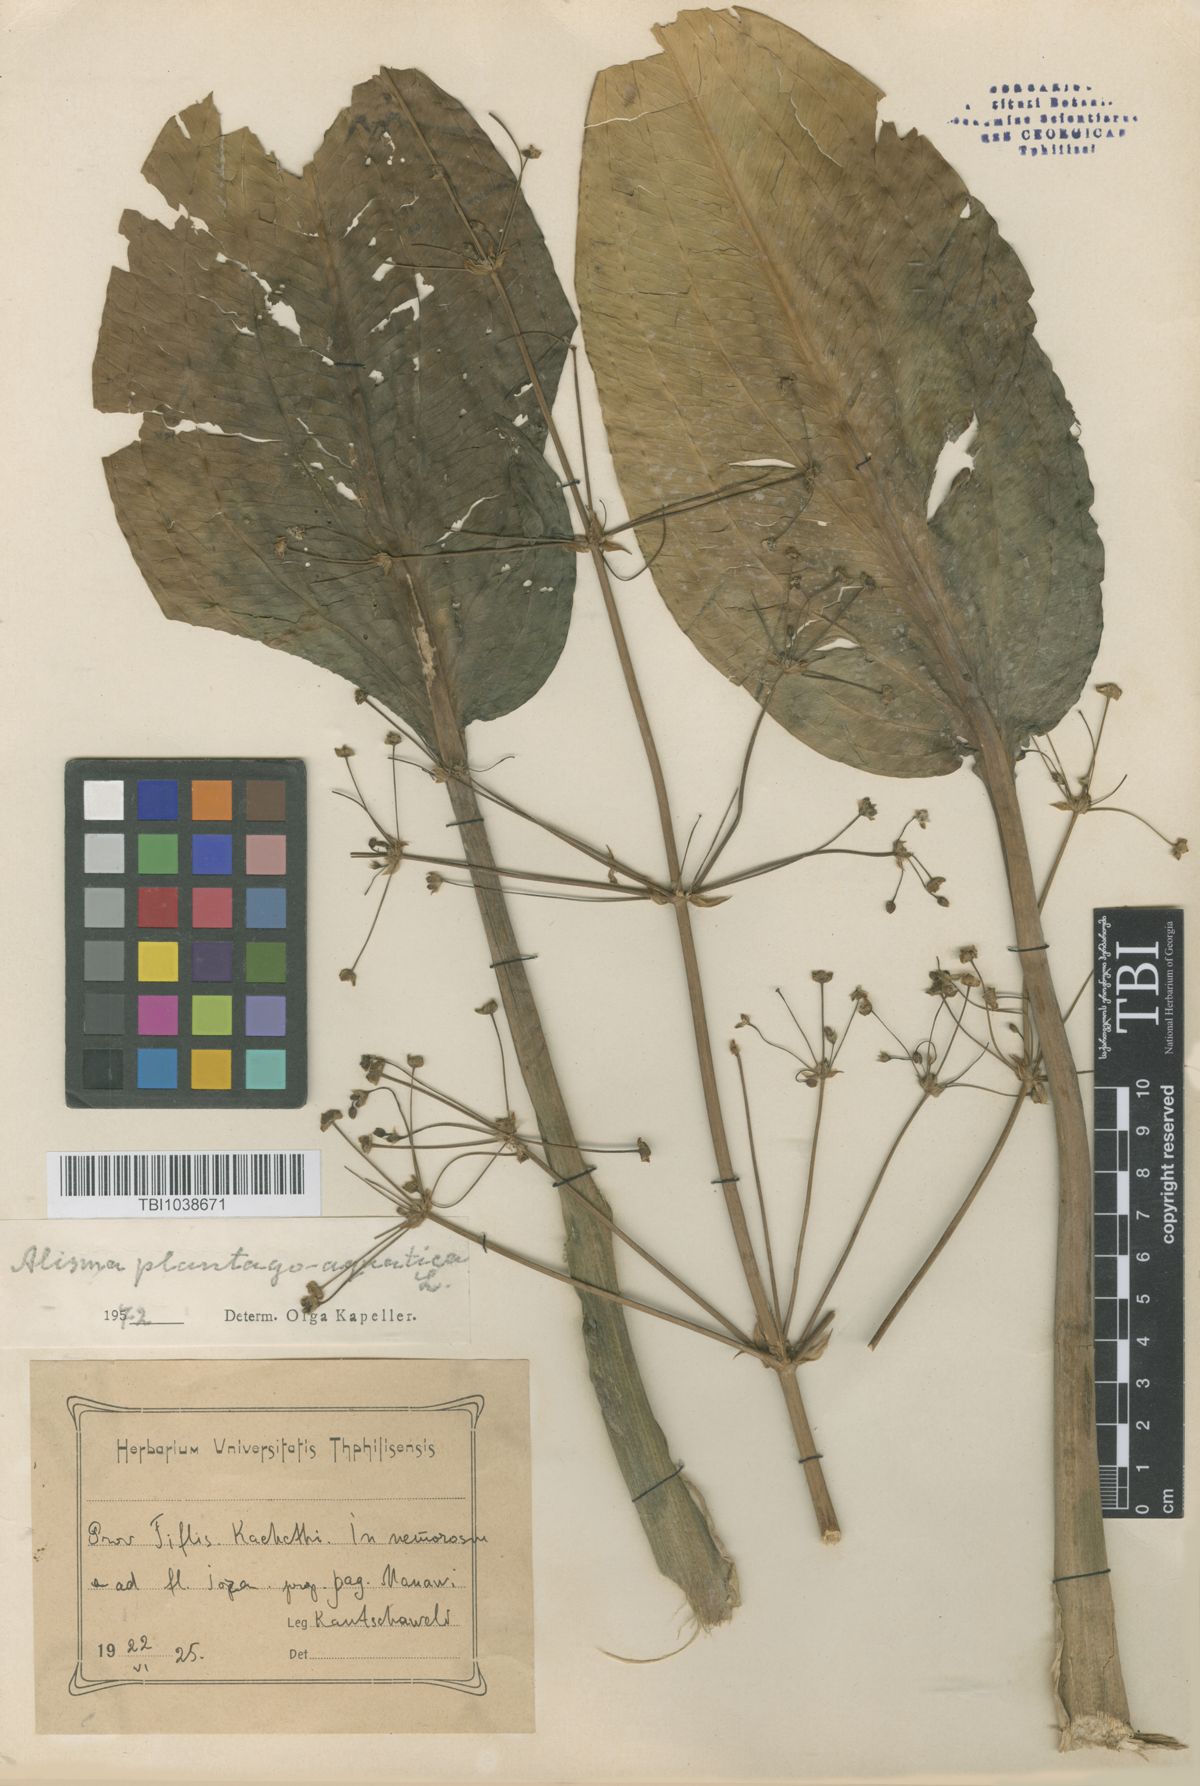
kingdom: Plantae
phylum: Tracheophyta
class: Liliopsida
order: Alismatales
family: Alismataceae
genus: Alisma
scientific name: Alisma plantago-aquatica
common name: Water-plantain
